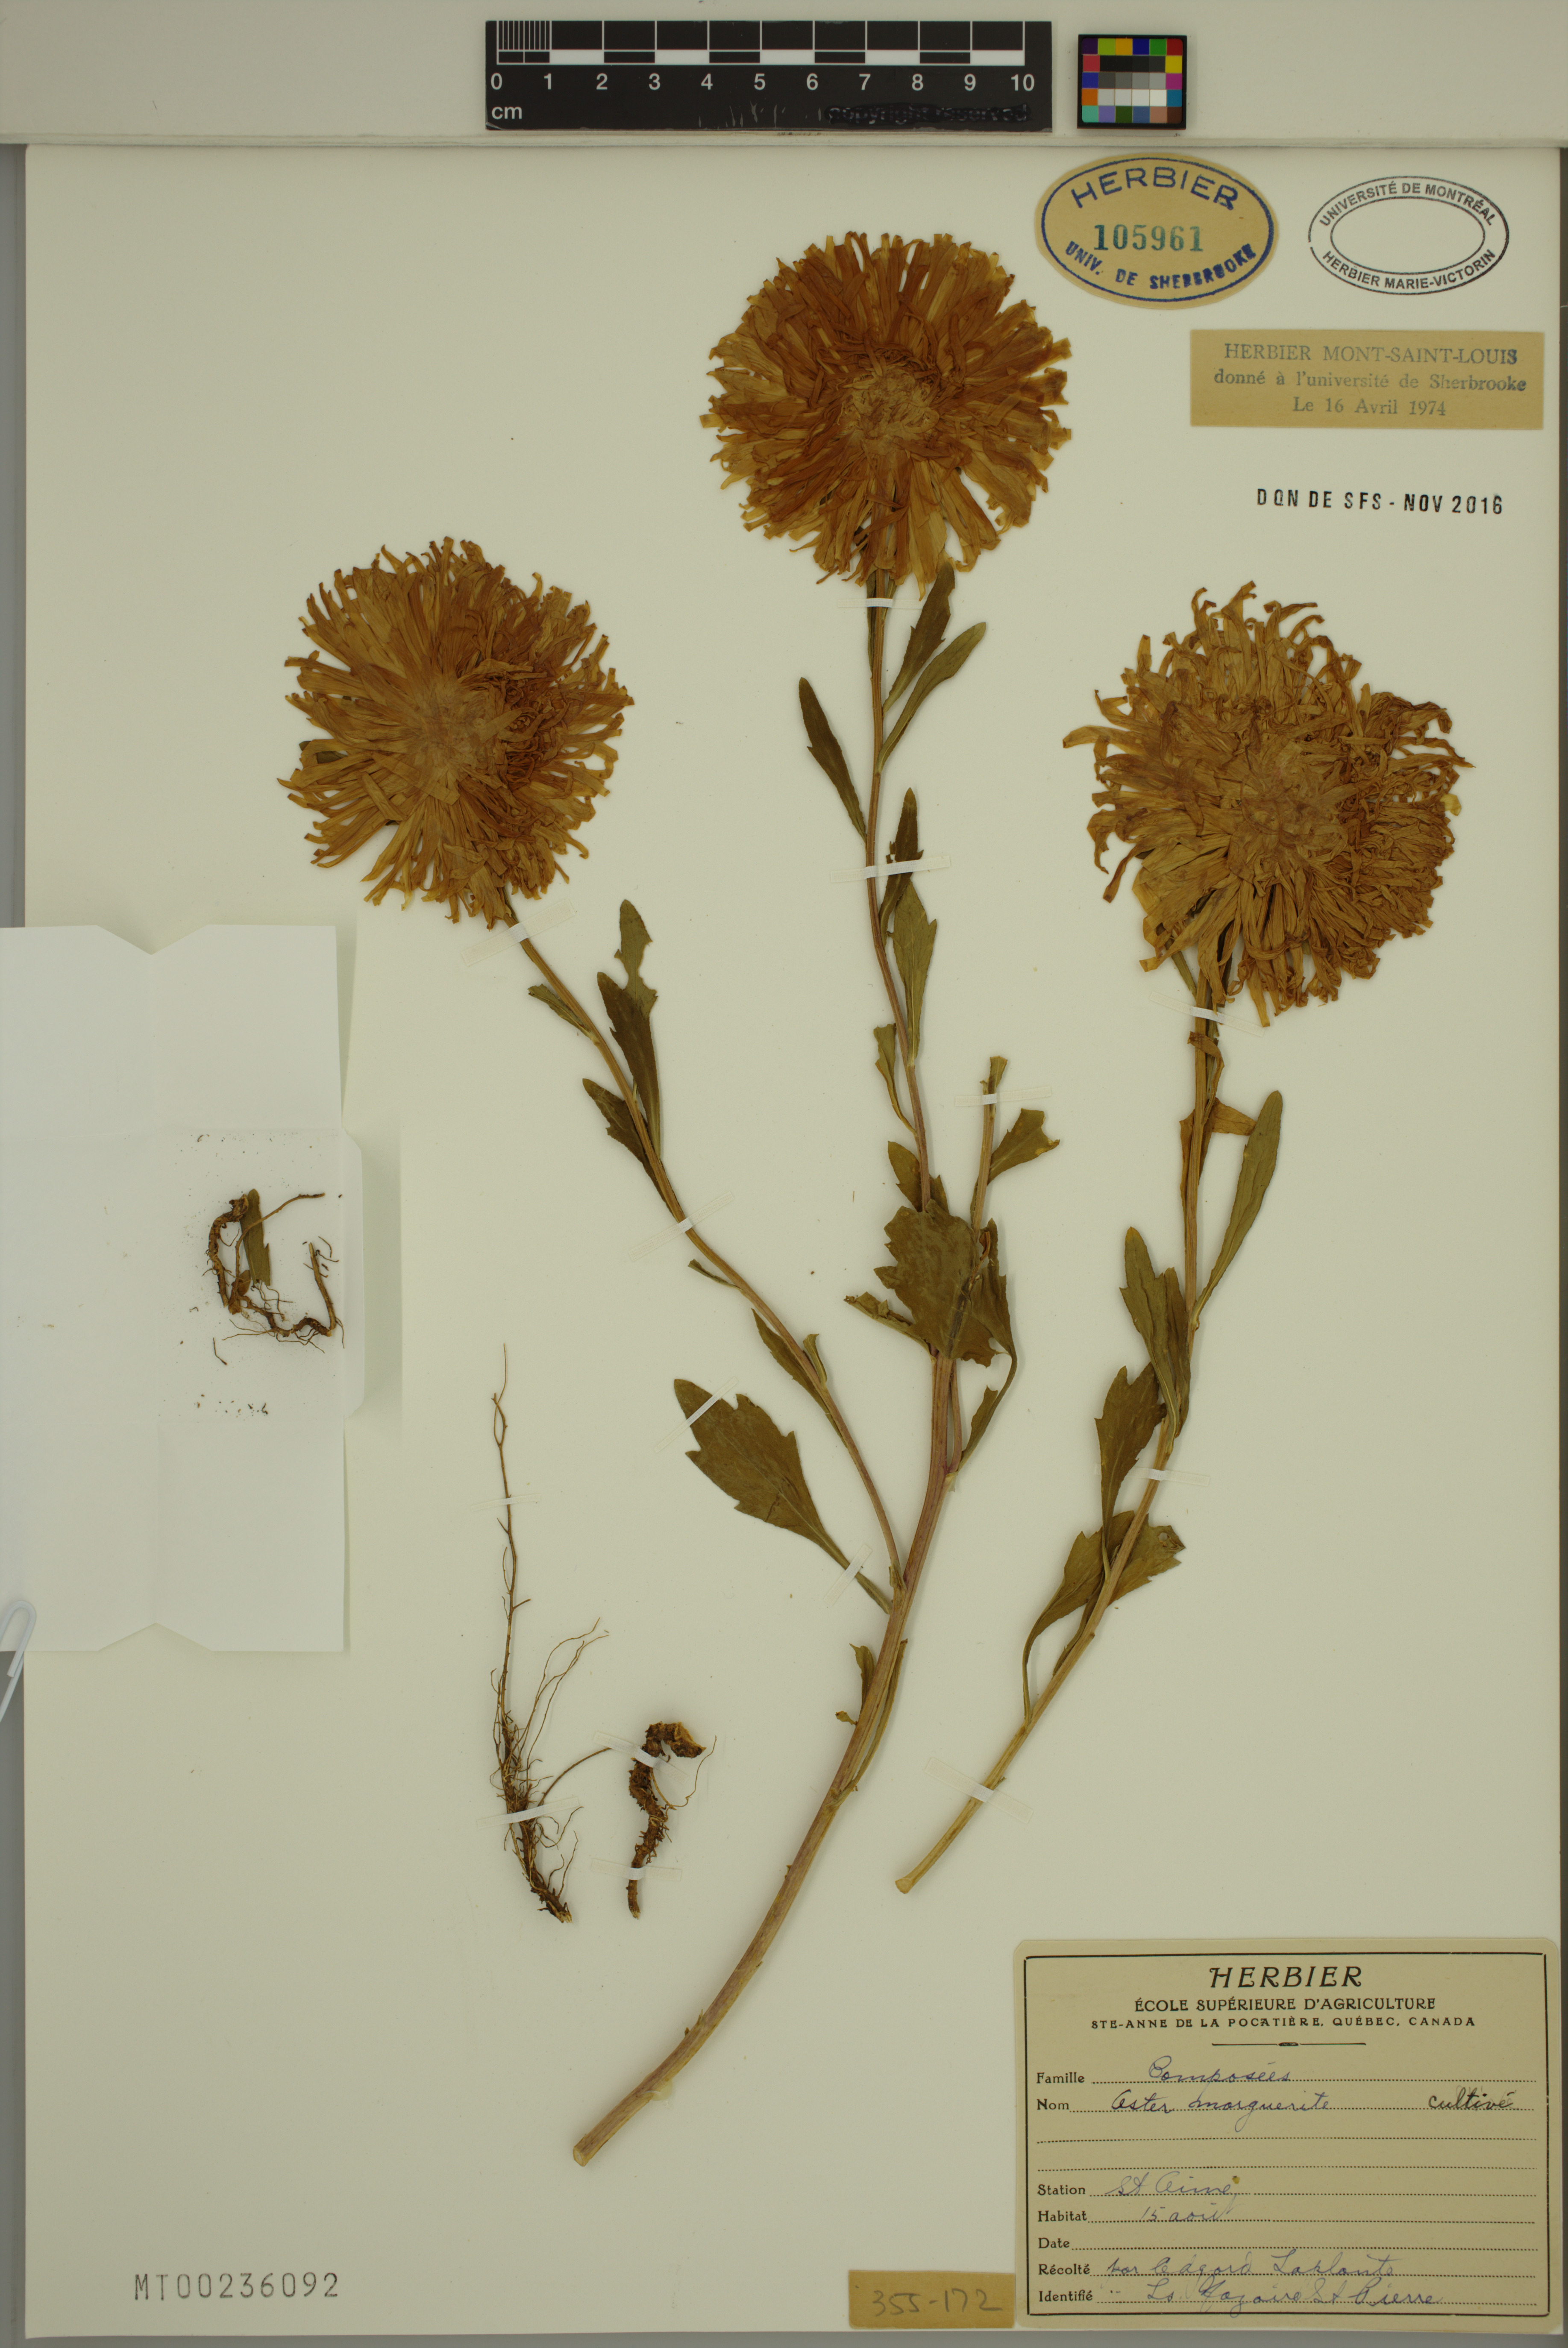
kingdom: Plantae
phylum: Tracheophyta
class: Magnoliopsida
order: Asterales
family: Asteraceae
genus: Callistephus
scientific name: Callistephus chinensis
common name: China aster
